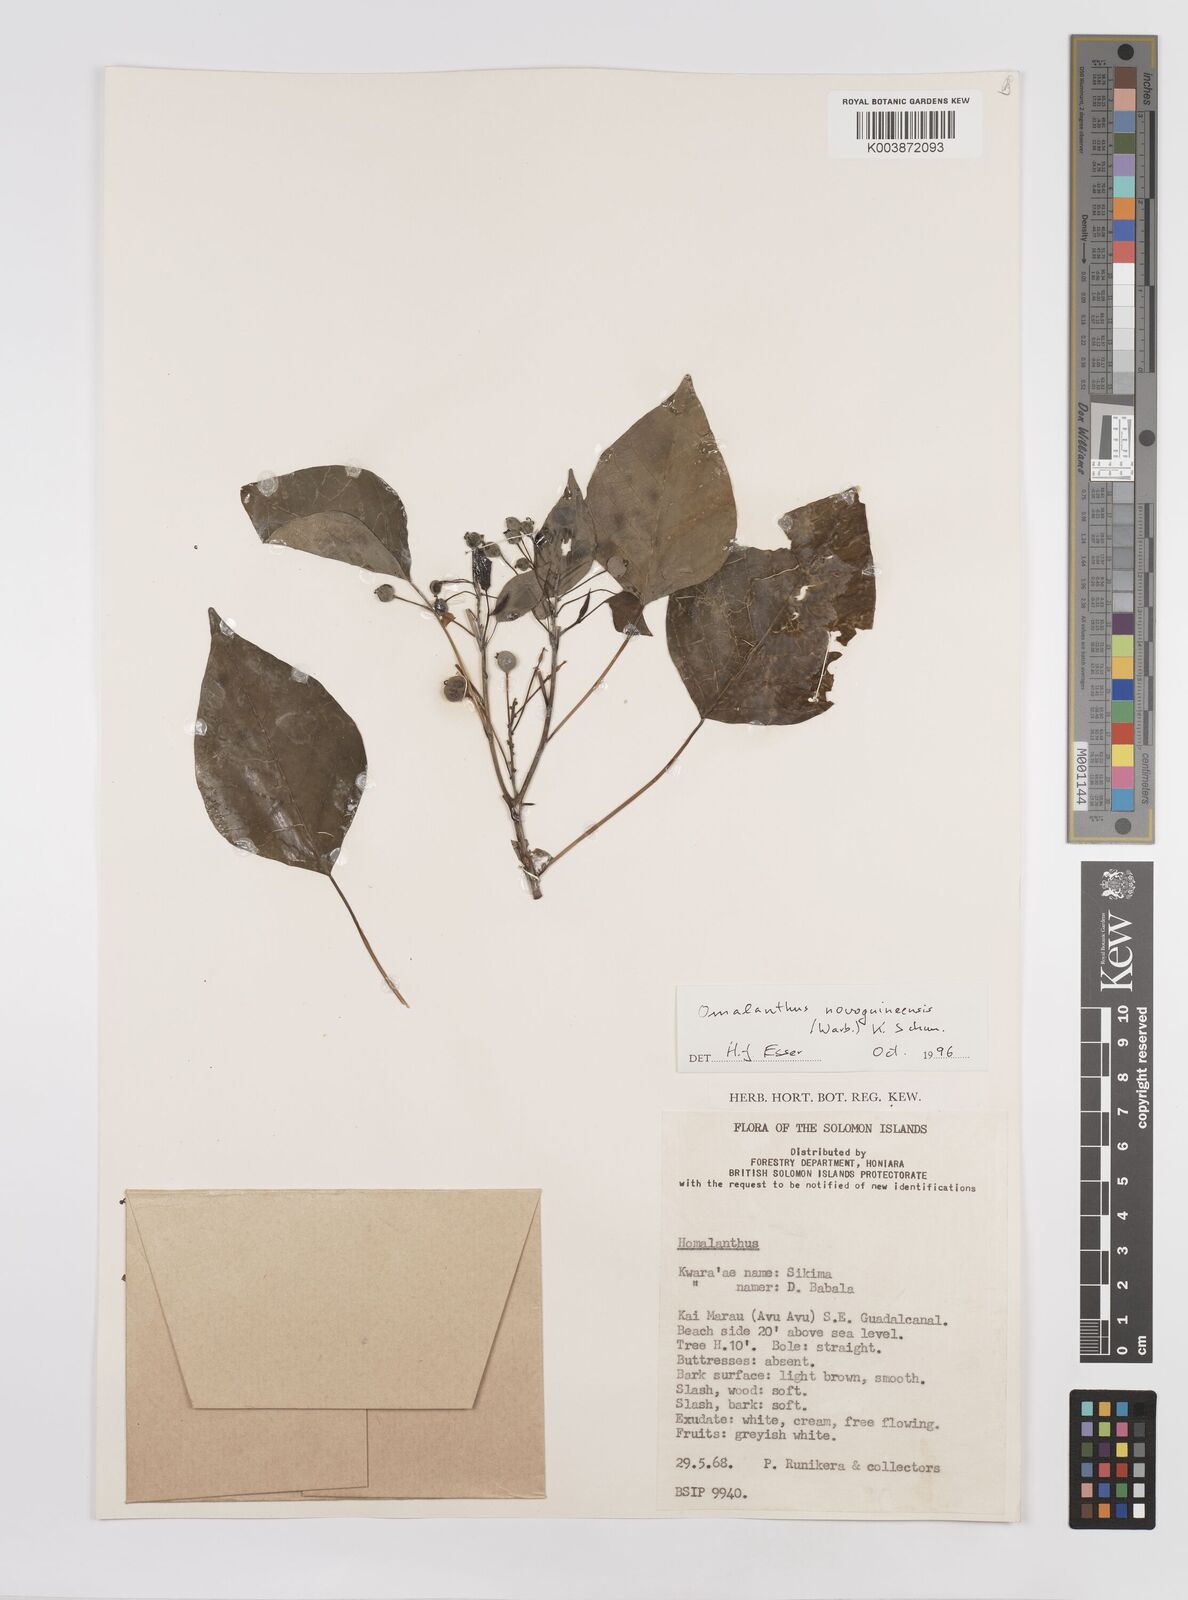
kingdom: Plantae
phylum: Tracheophyta
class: Magnoliopsida
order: Malpighiales
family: Euphorbiaceae
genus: Homalanthus
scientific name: Homalanthus novoguineensis
